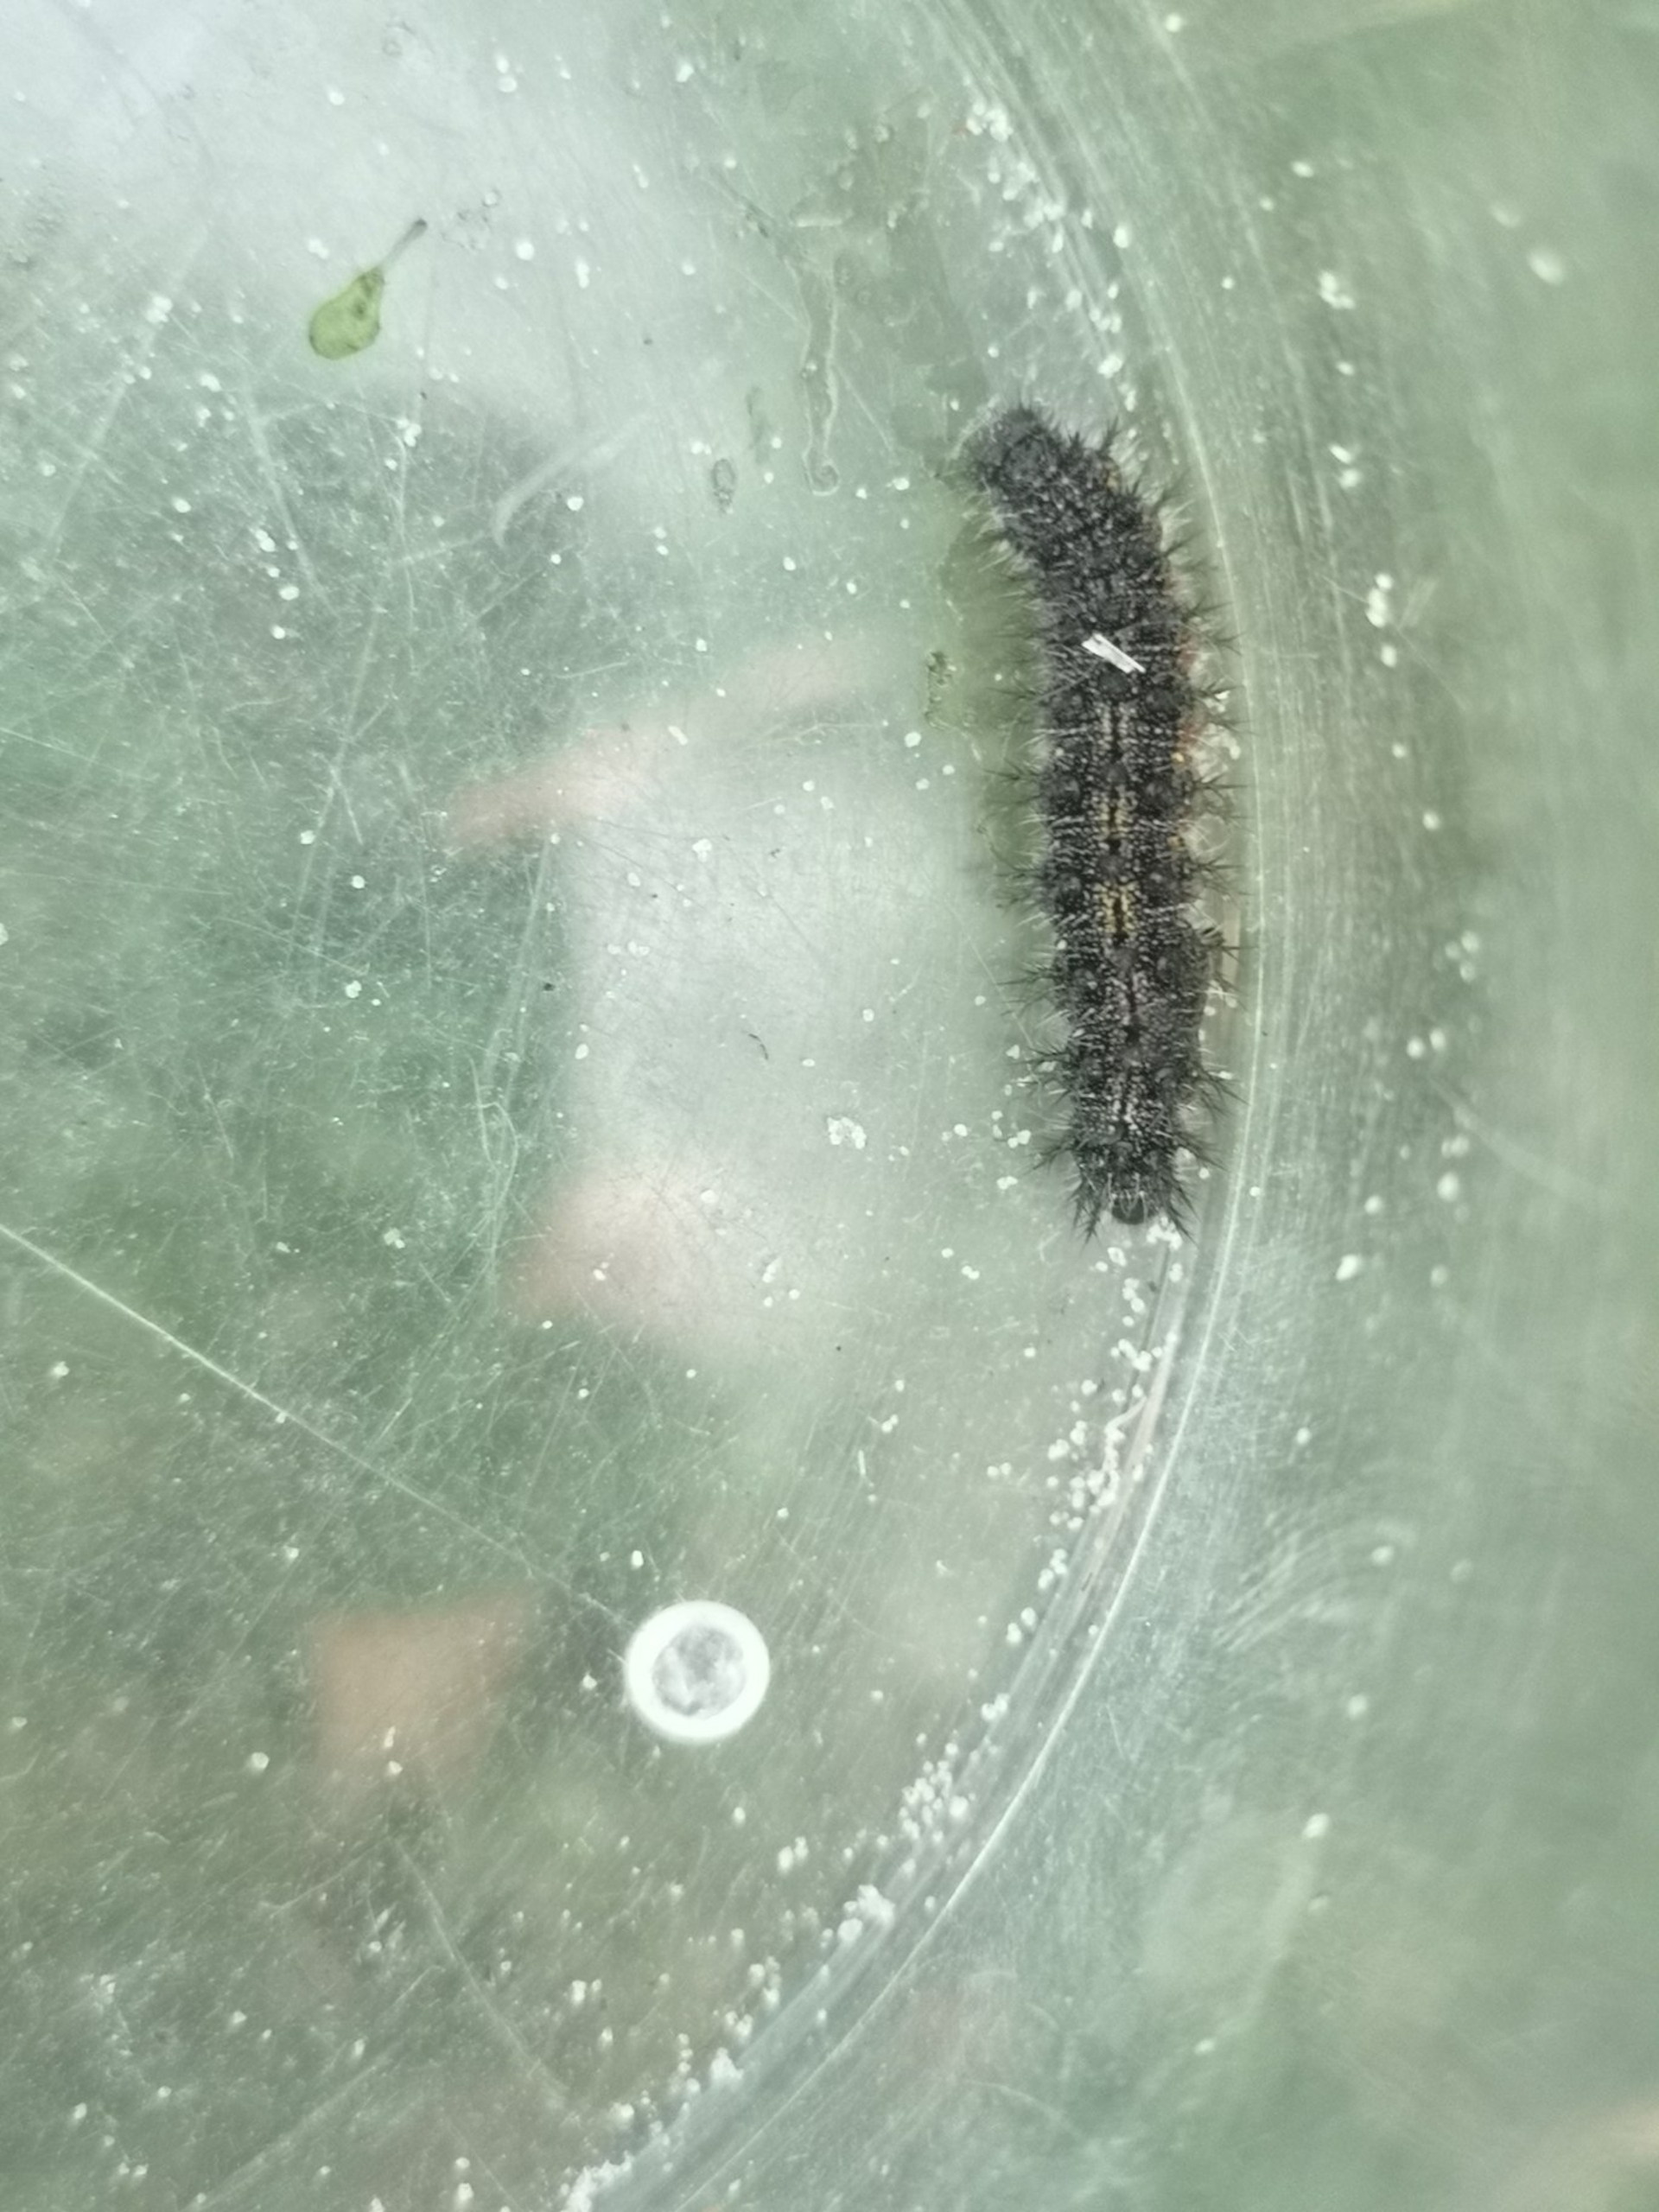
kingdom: Animalia
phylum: Arthropoda
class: Insecta
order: Lepidoptera
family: Nymphalidae
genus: Aglais
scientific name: Aglais urticae
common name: Nældens takvinge
